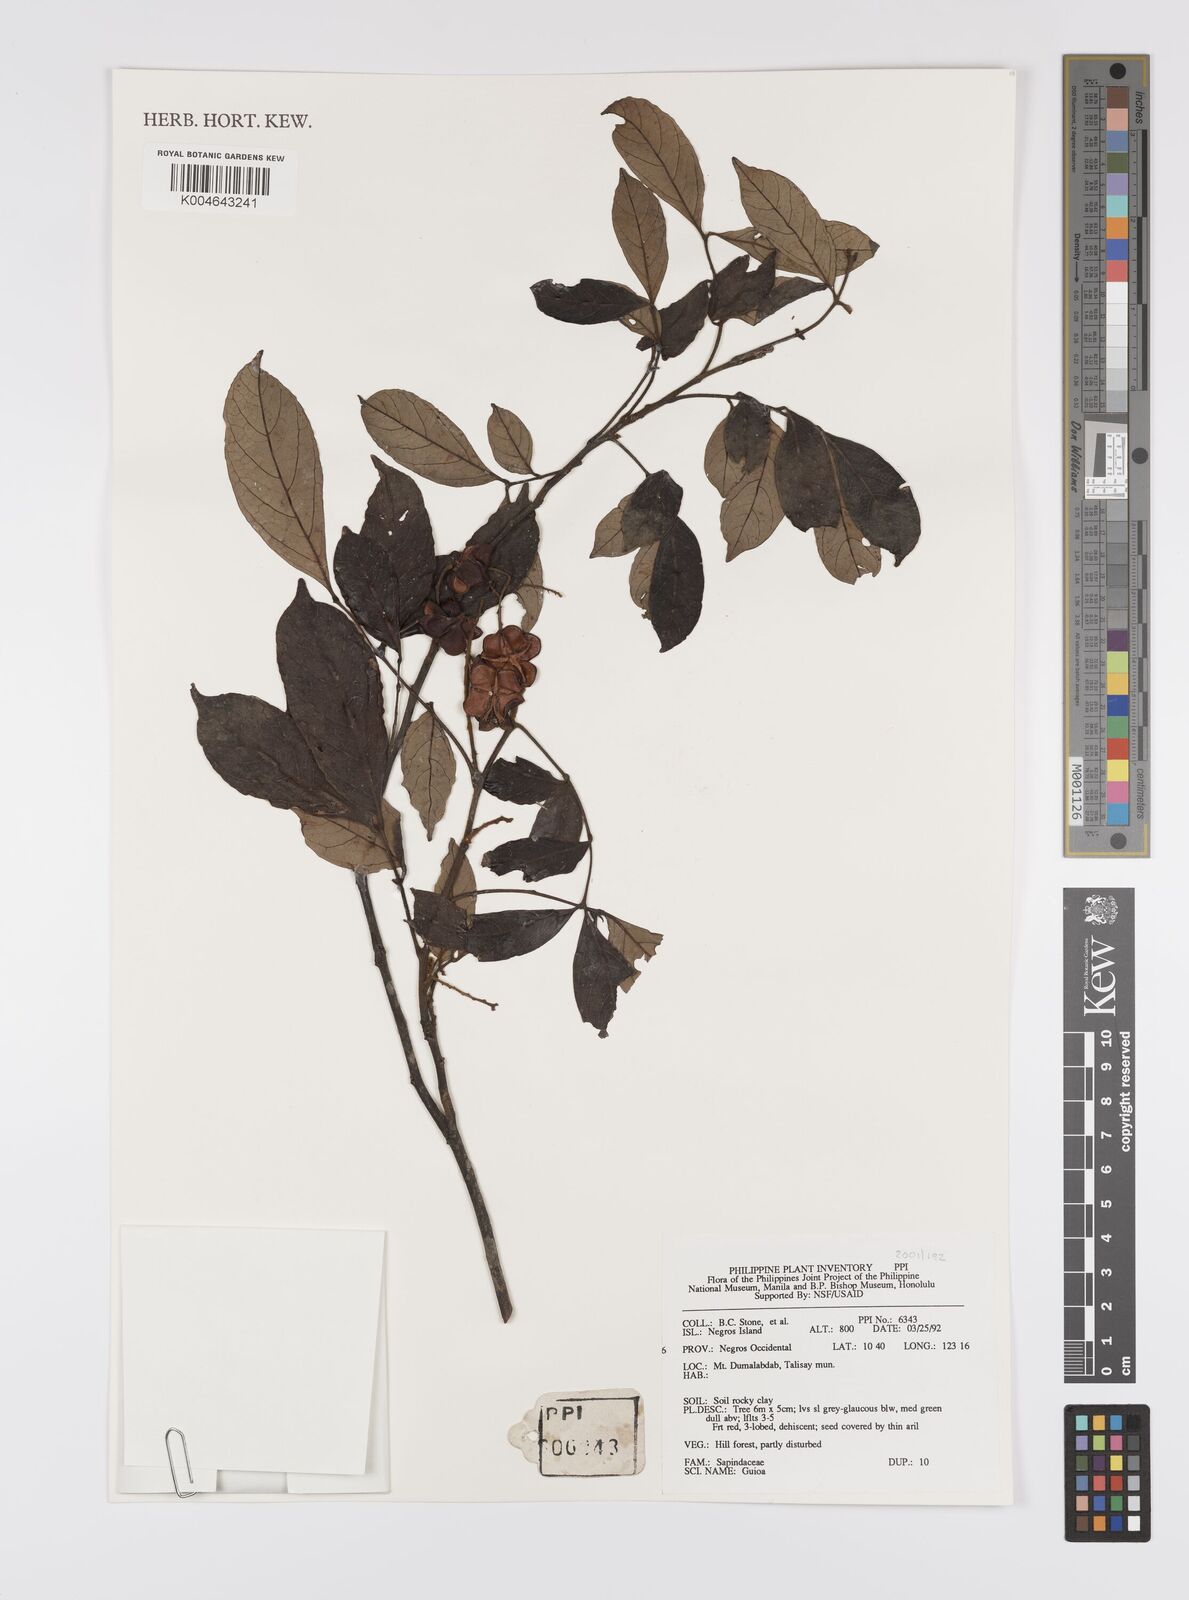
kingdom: Plantae
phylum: Tracheophyta
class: Magnoliopsida
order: Sapindales
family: Sapindaceae
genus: Guioa
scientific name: Guioa
